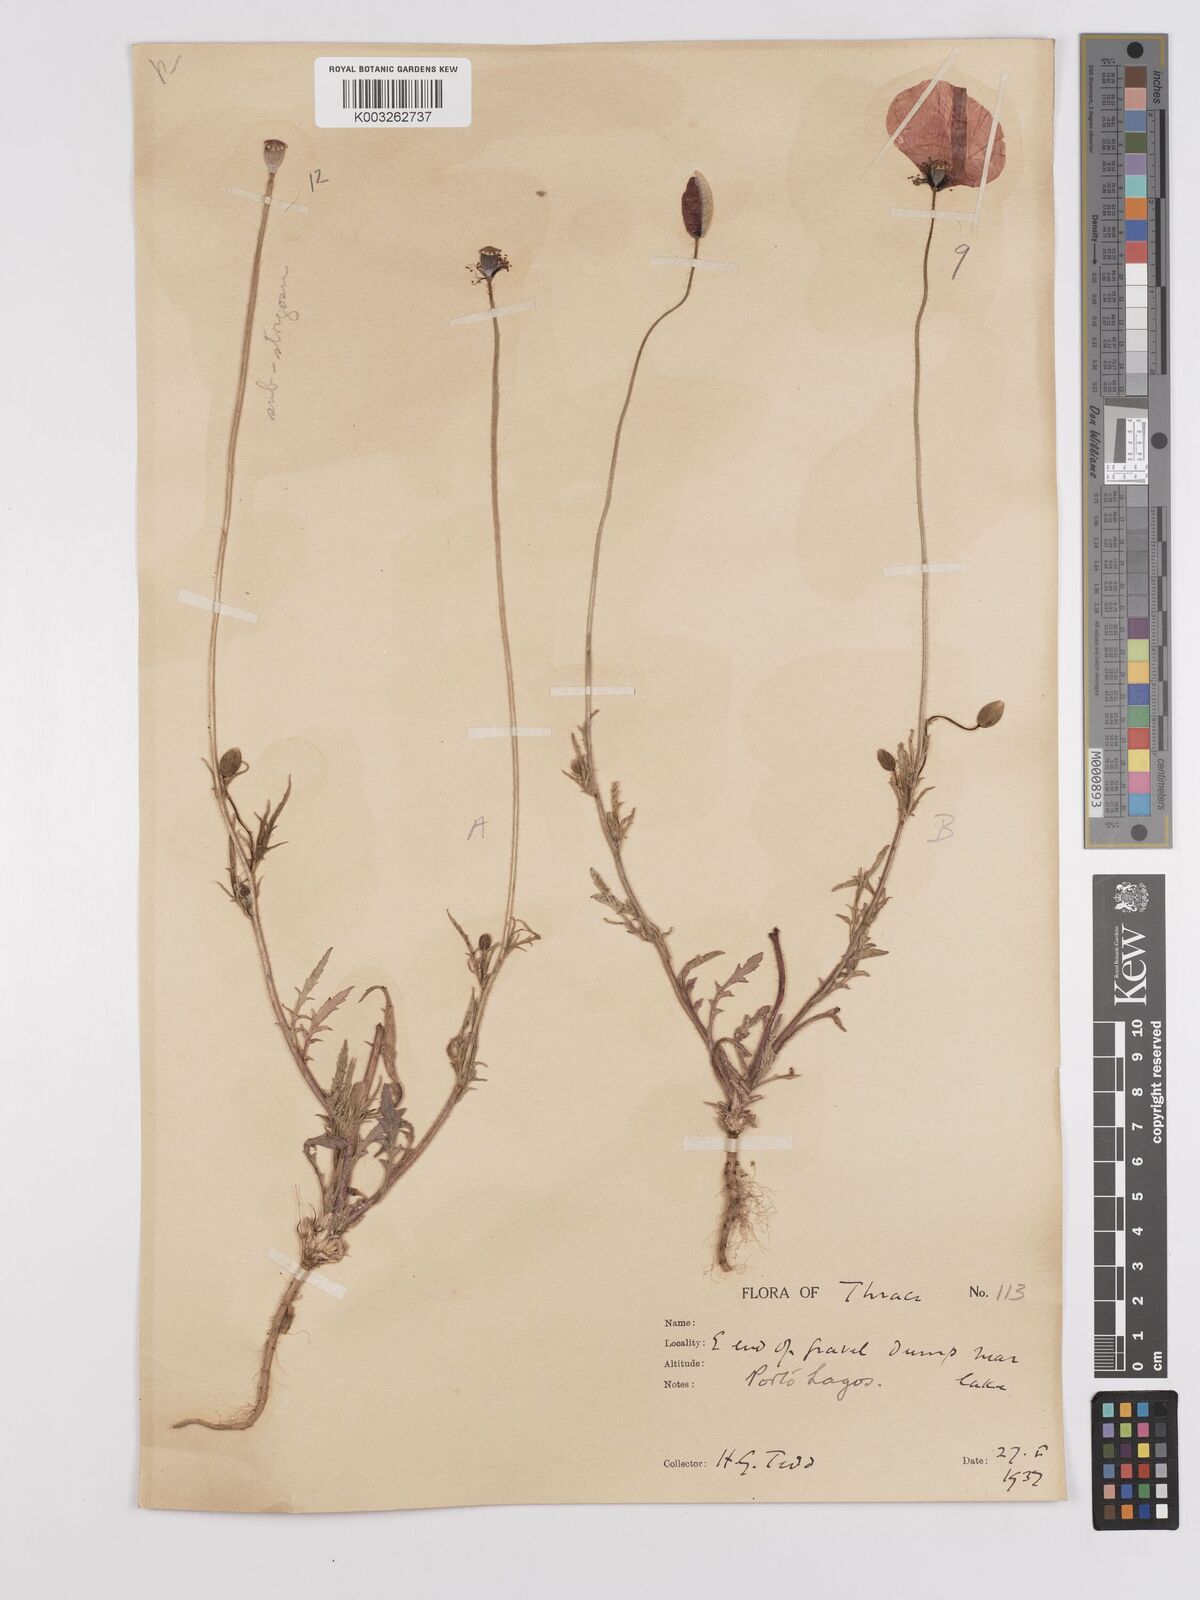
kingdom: Plantae
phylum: Tracheophyta
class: Magnoliopsida
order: Ranunculales
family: Papaveraceae
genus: Papaver
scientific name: Papaver
